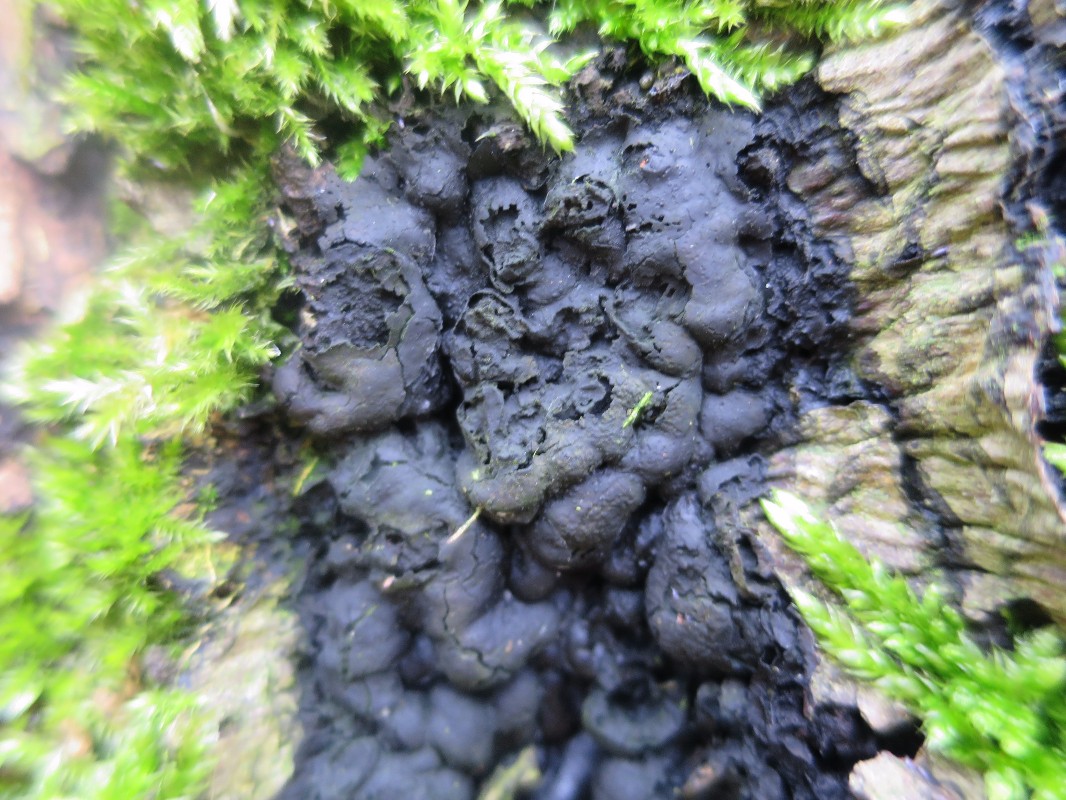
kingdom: Fungi
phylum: Ascomycota
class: Sordariomycetes
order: Xylariales
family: Xylariaceae
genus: Kretzschmaria
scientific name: Kretzschmaria deusta
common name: stor kulsvamp
